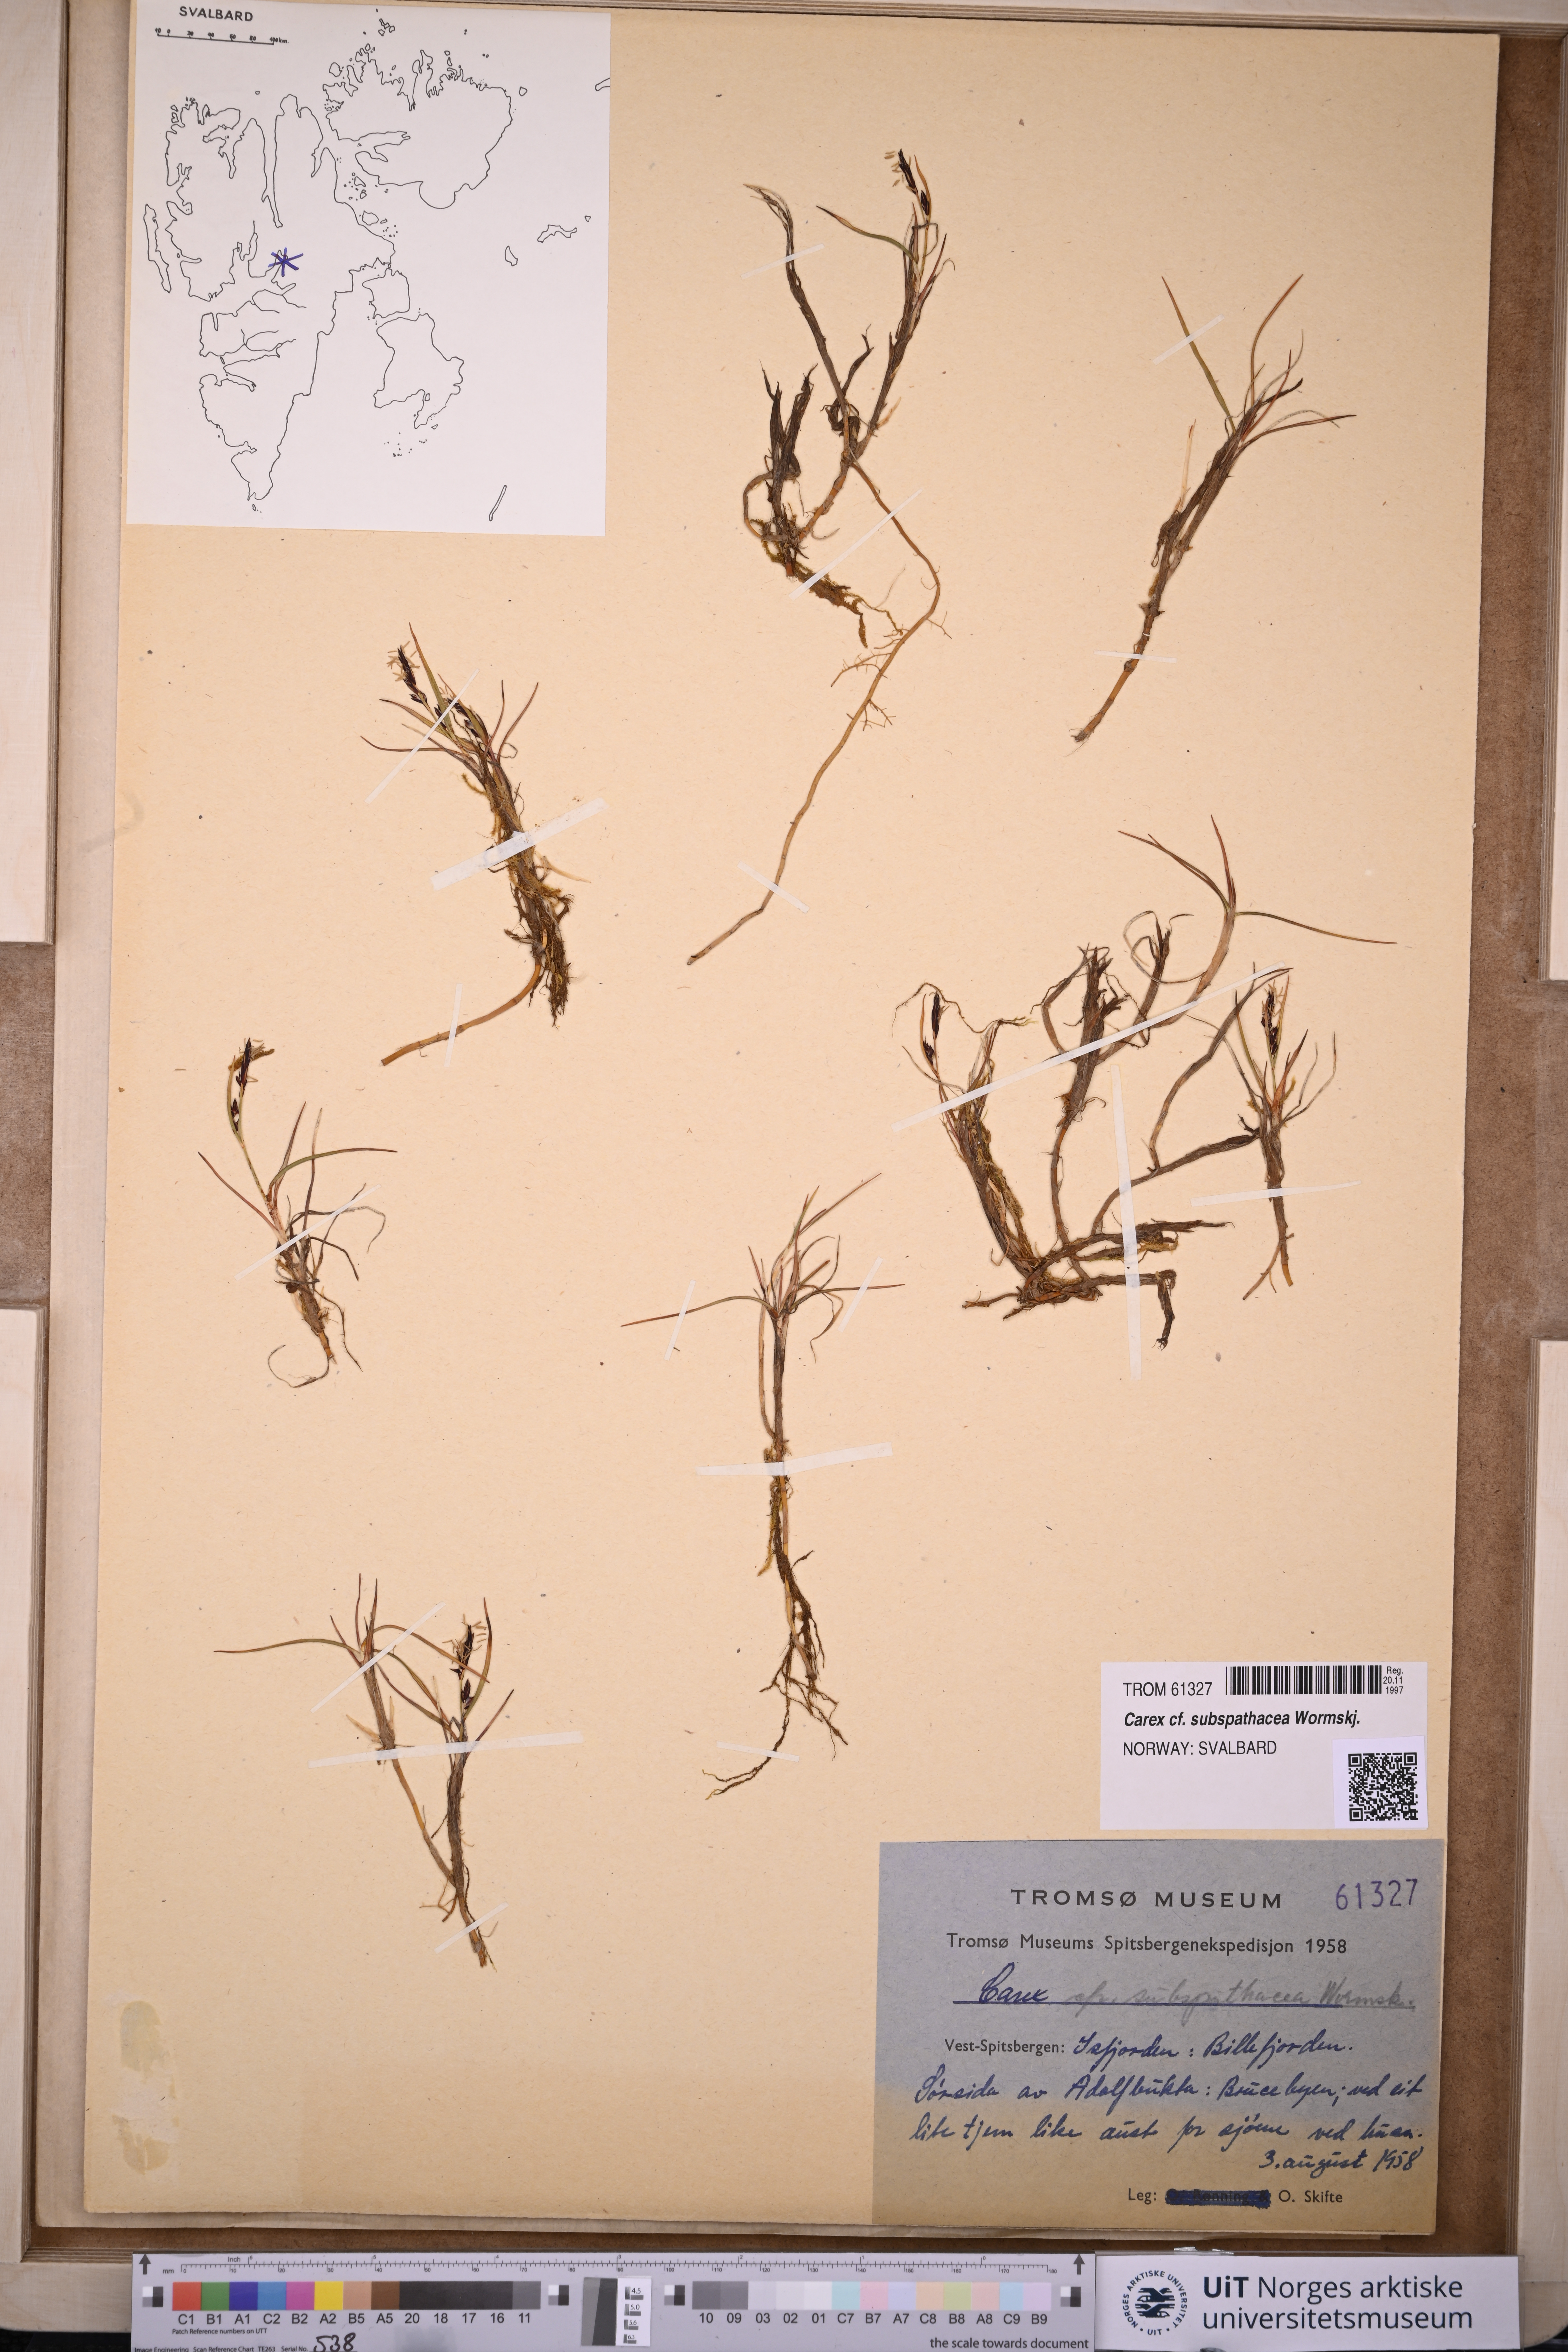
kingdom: Plantae
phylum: Tracheophyta
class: Liliopsida
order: Poales
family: Cyperaceae
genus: Carex
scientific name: Carex subspathacea
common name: Hoppner's sedge
